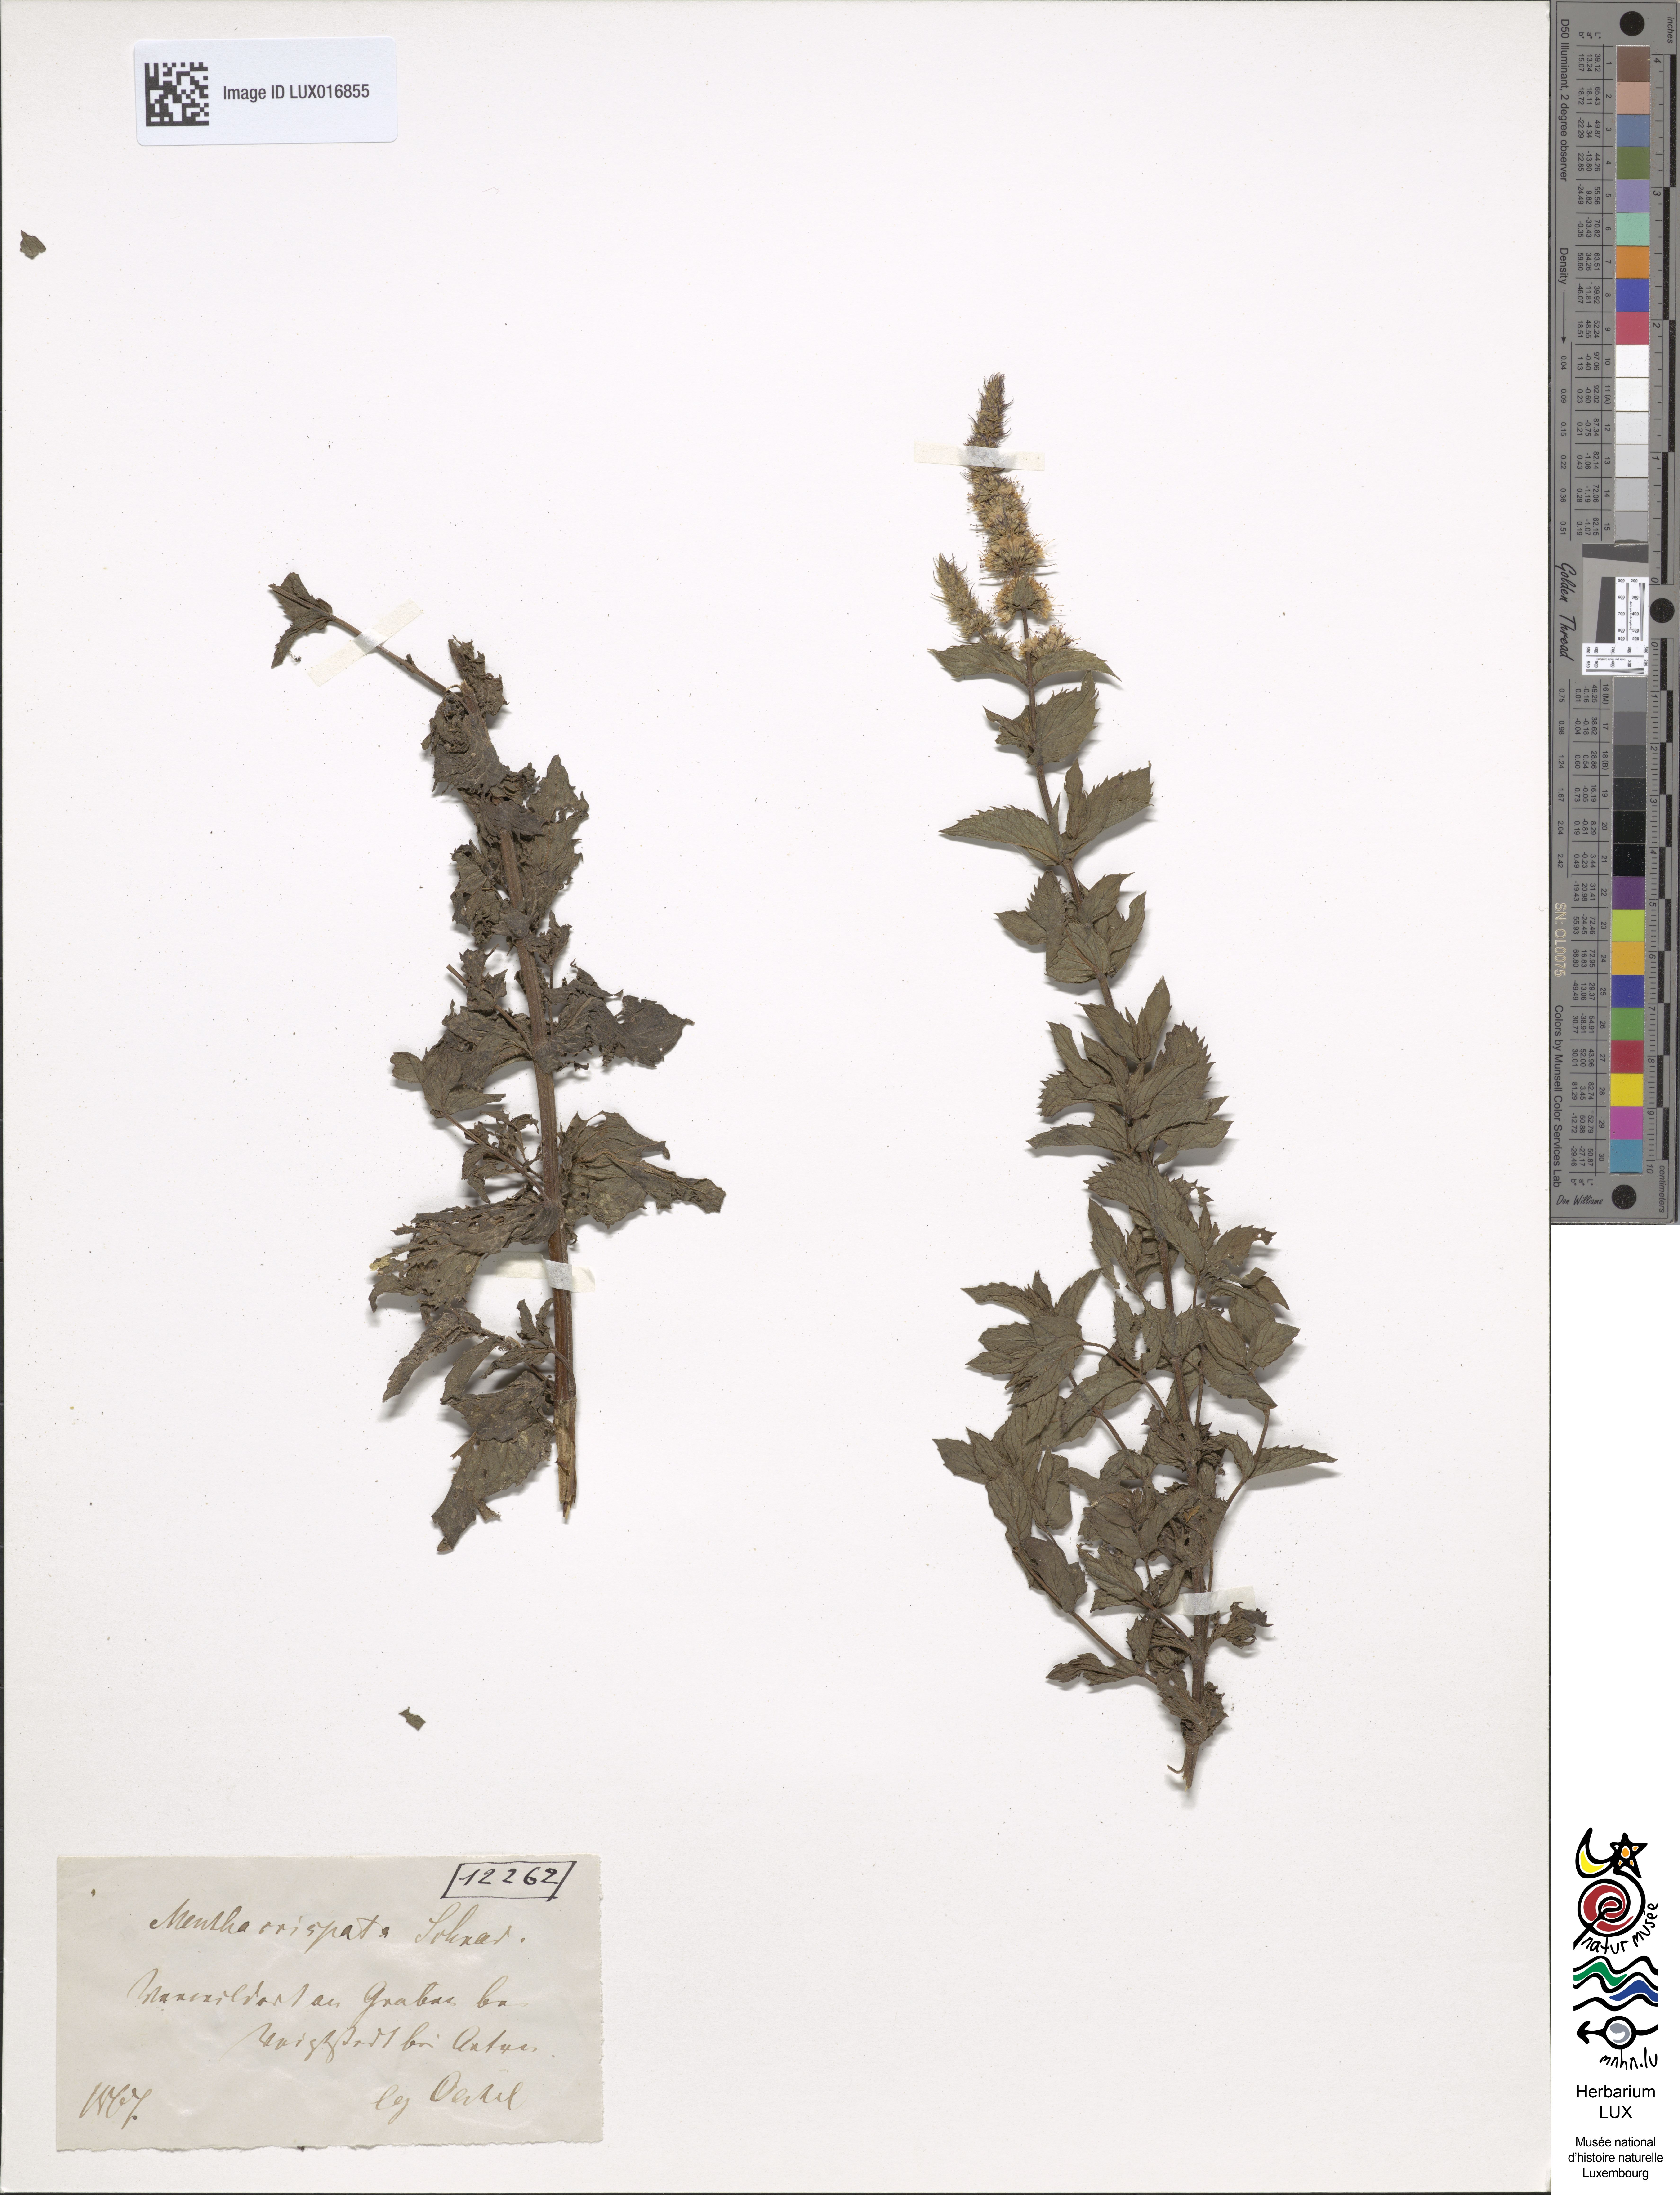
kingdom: Plantae
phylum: Tracheophyta
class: Magnoliopsida
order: Lamiales
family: Lamiaceae
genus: Mentha
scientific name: Mentha spicata
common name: Spearmint
